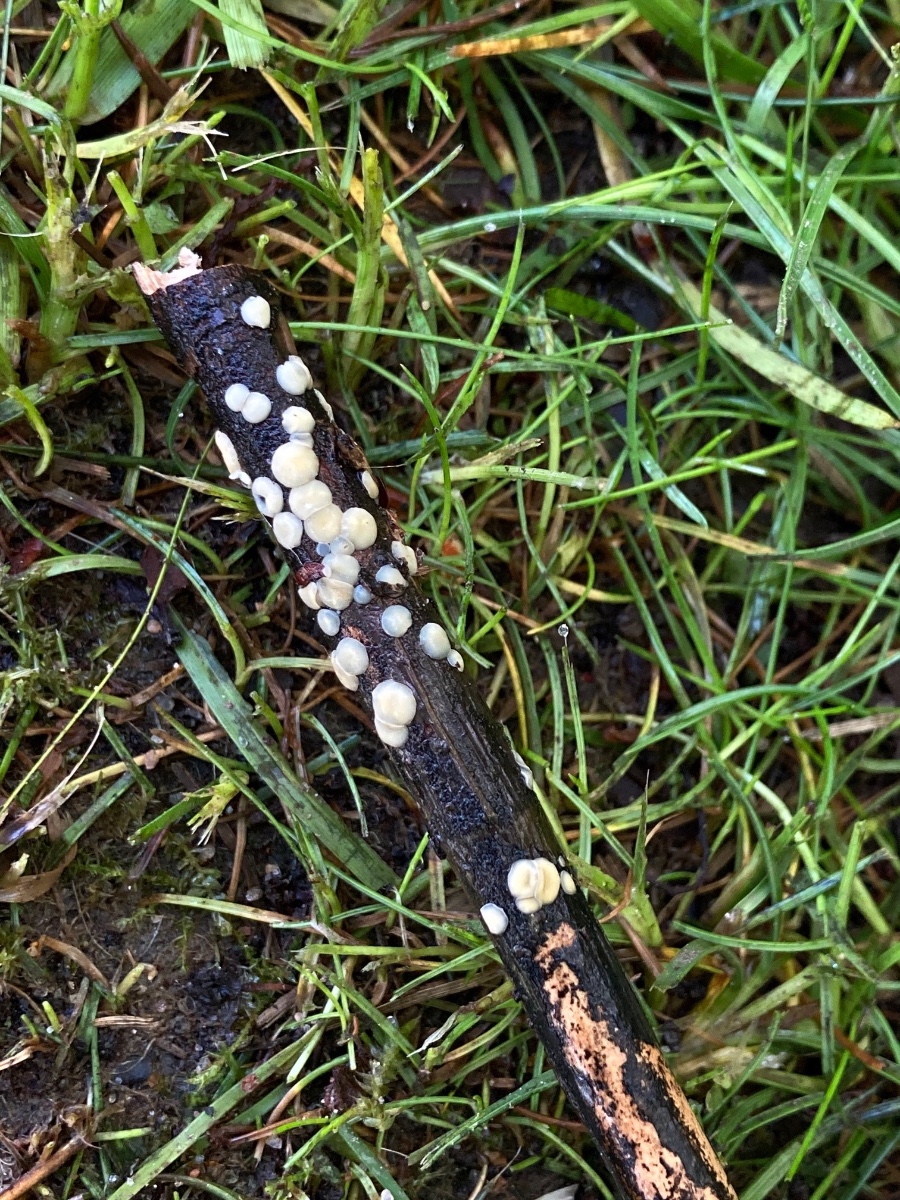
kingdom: Fungi
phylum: Ascomycota
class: Leotiomycetes
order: Helotiales
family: Mollisiaceae
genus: Trichobelonium
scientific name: Trichobelonium kneiffii
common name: tagrør-gråskive
